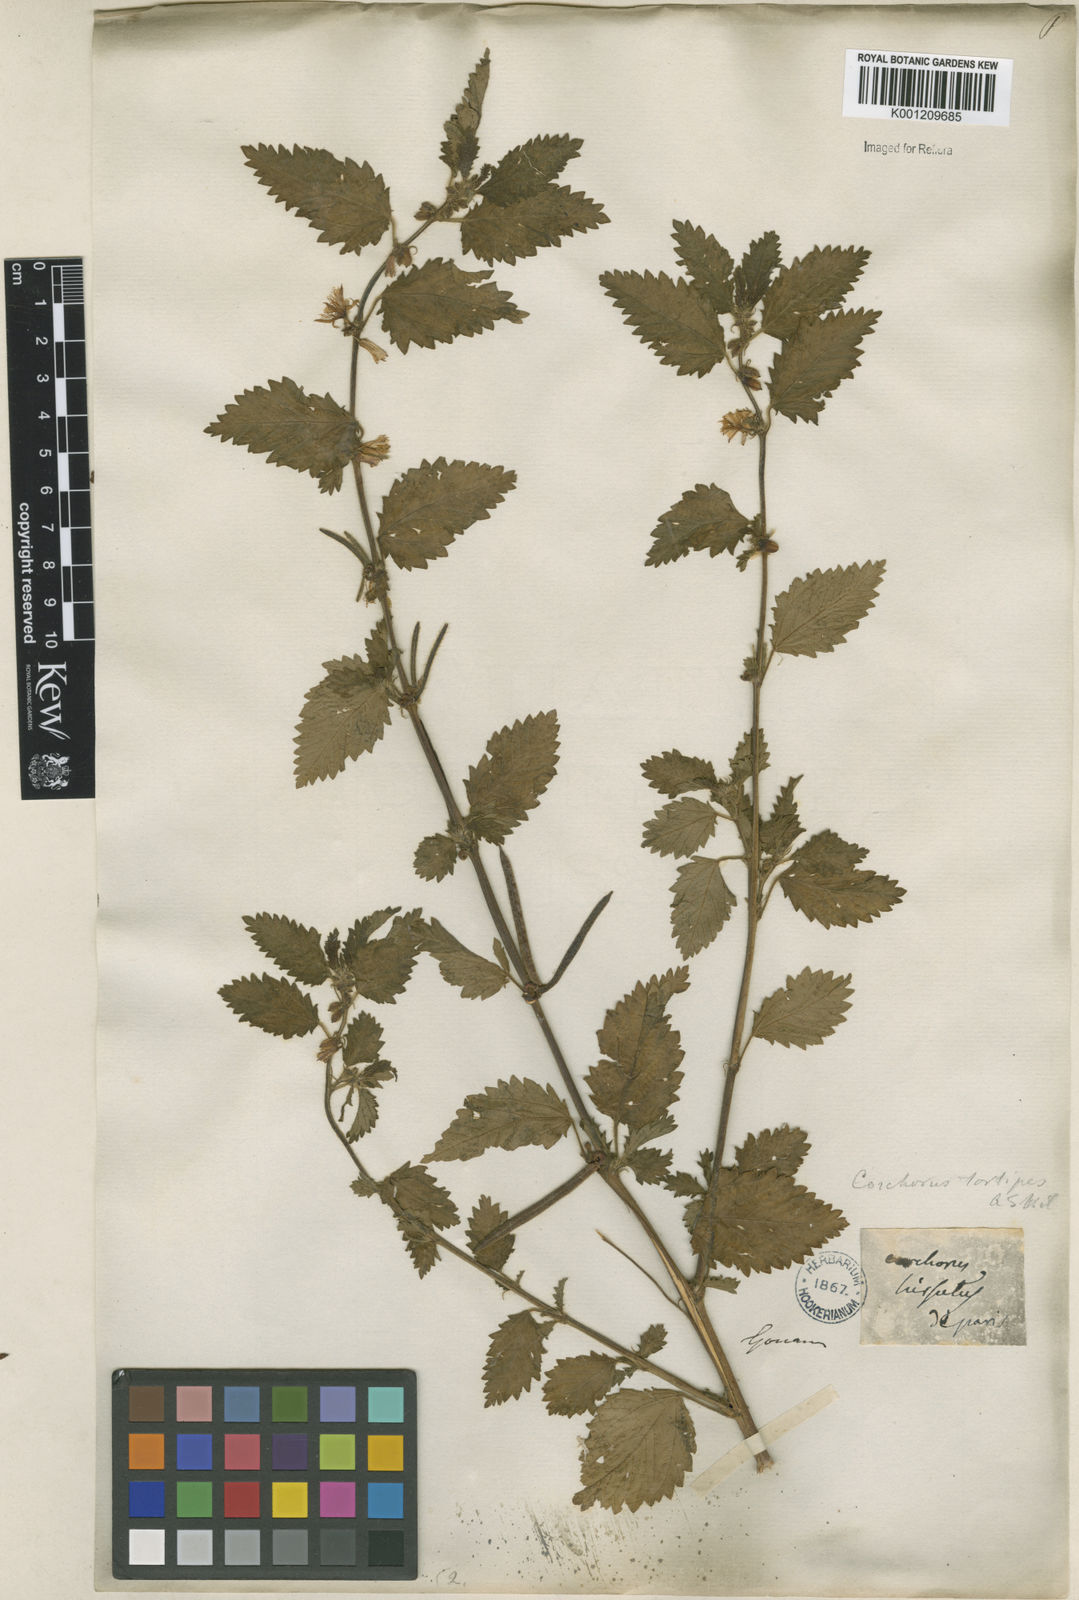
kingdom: Plantae
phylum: Tracheophyta
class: Magnoliopsida
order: Malvales
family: Malvaceae
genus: Corchorus
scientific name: Corchorus hirtus
